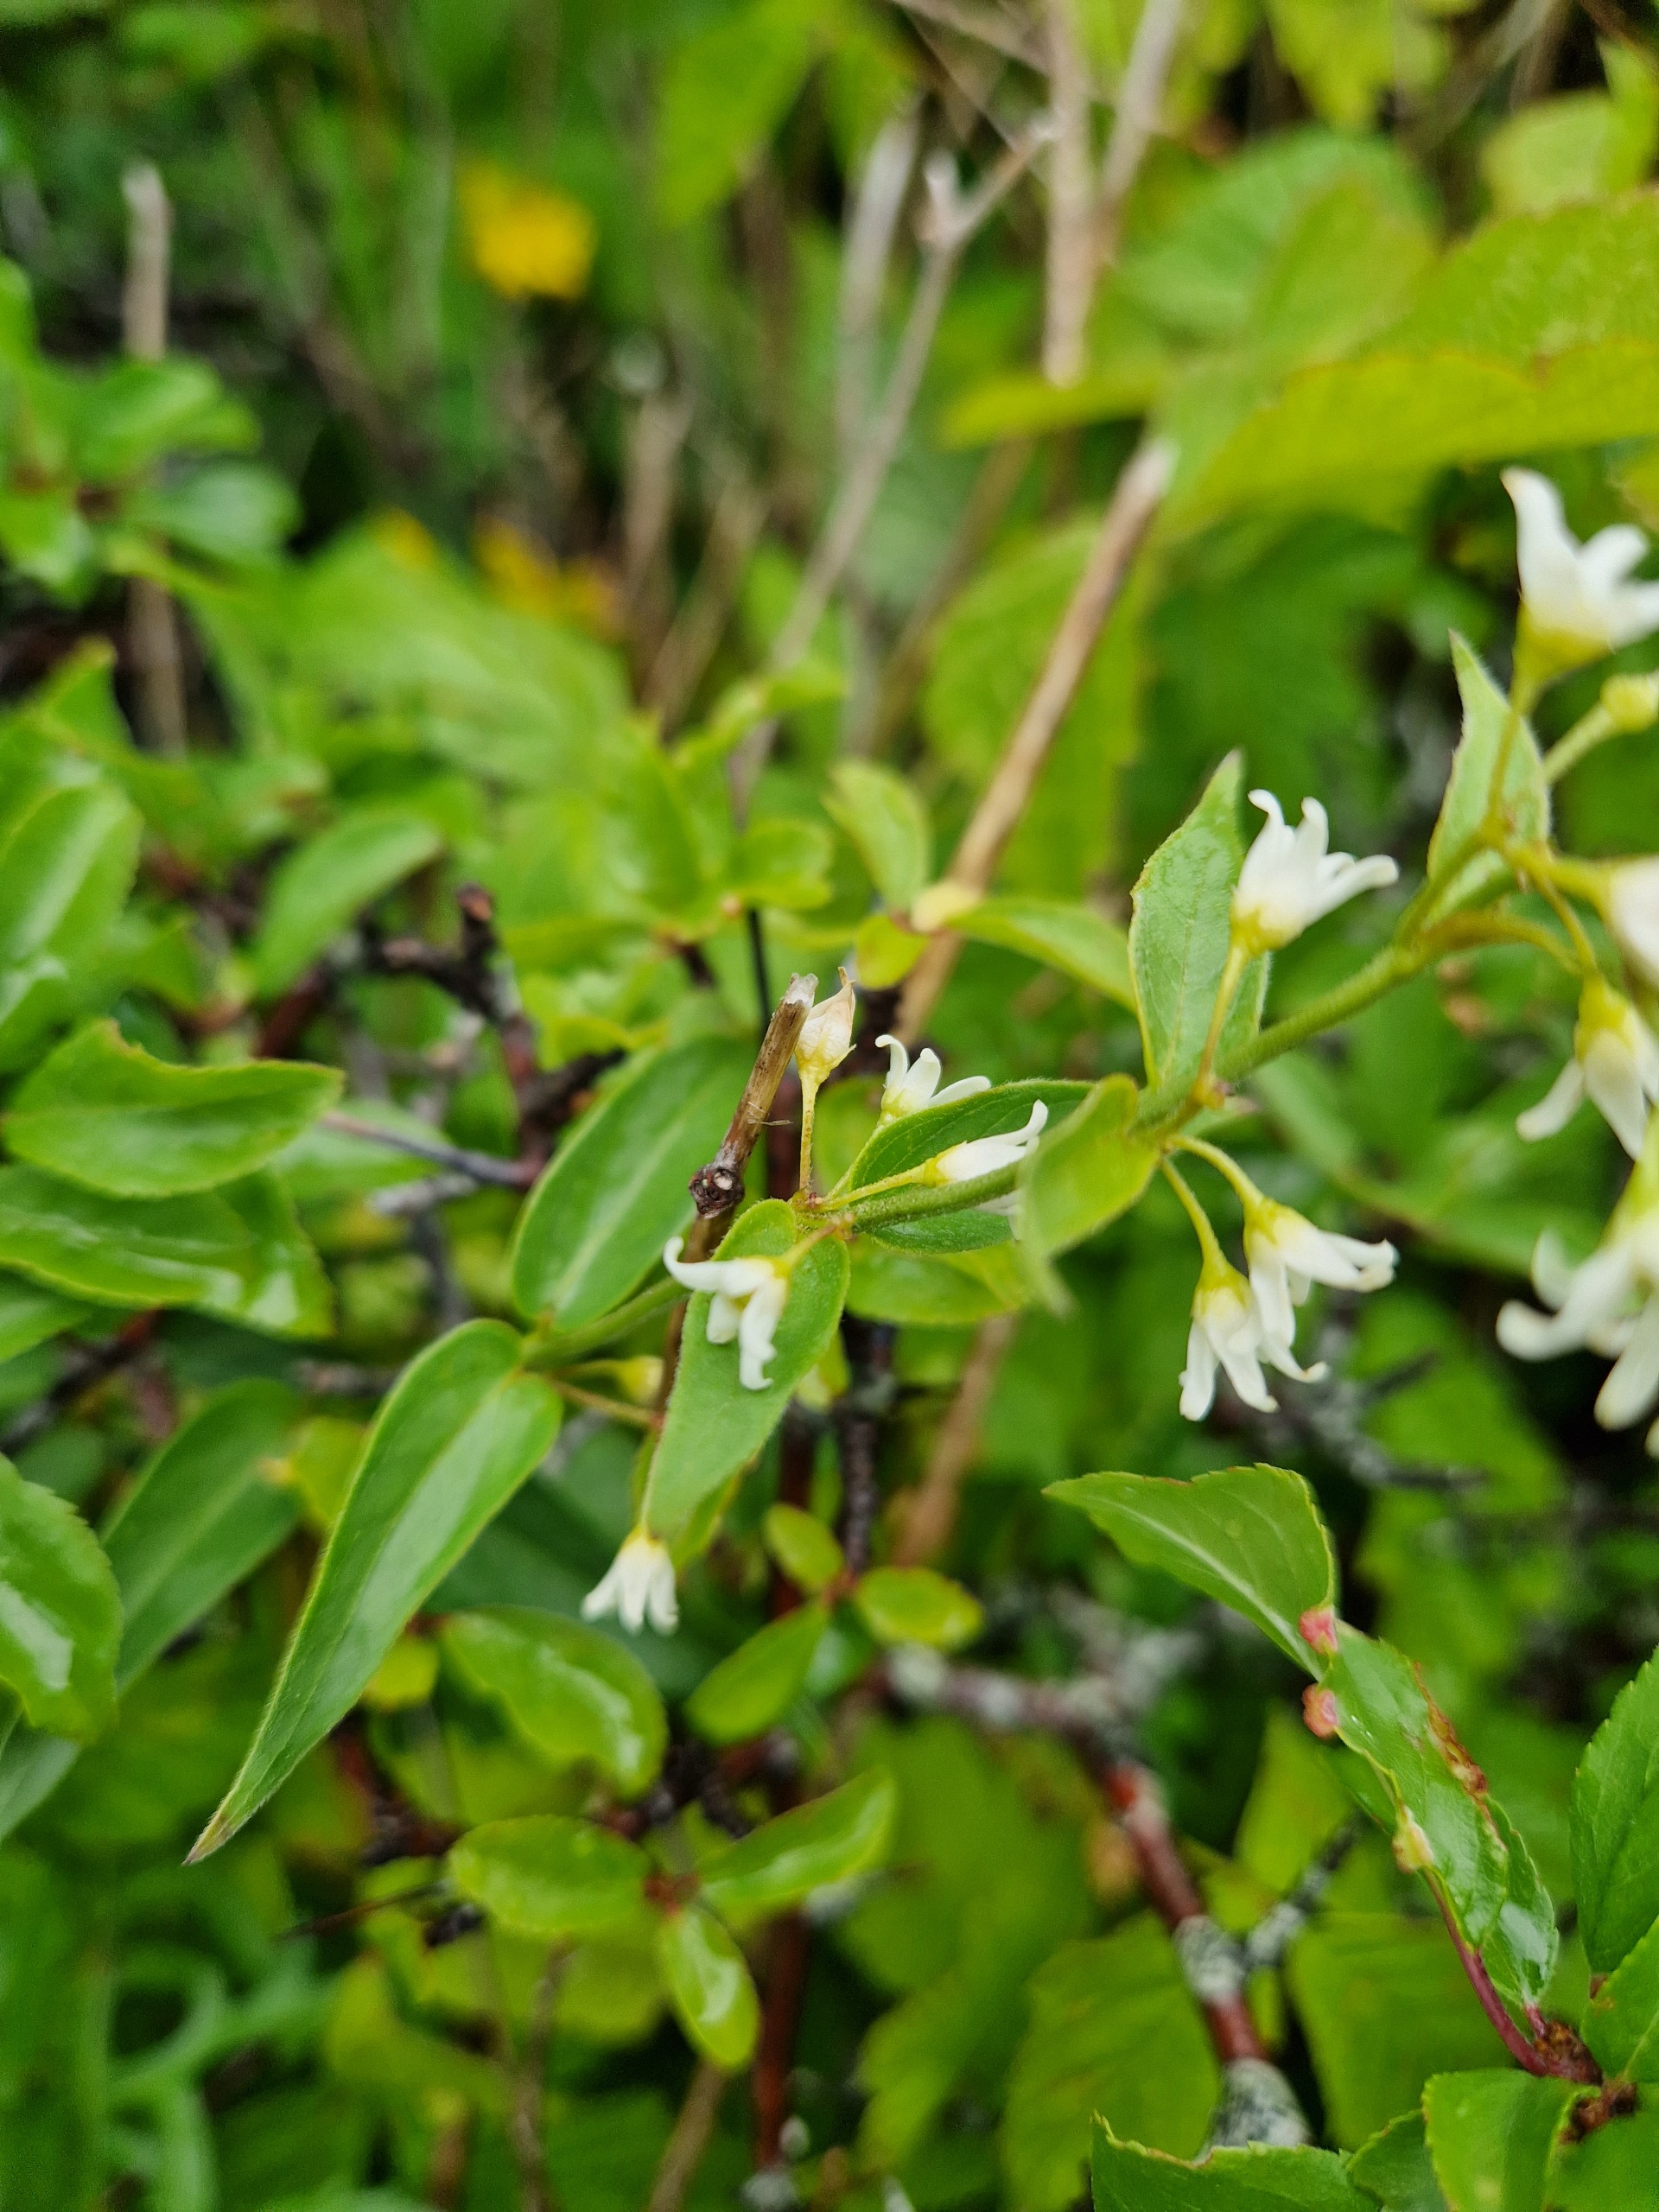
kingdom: Plantae
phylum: Tracheophyta
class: Magnoliopsida
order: Gentianales
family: Apocynaceae
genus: Vincetoxicum
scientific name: Vincetoxicum hirundinaria
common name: Svalerod
